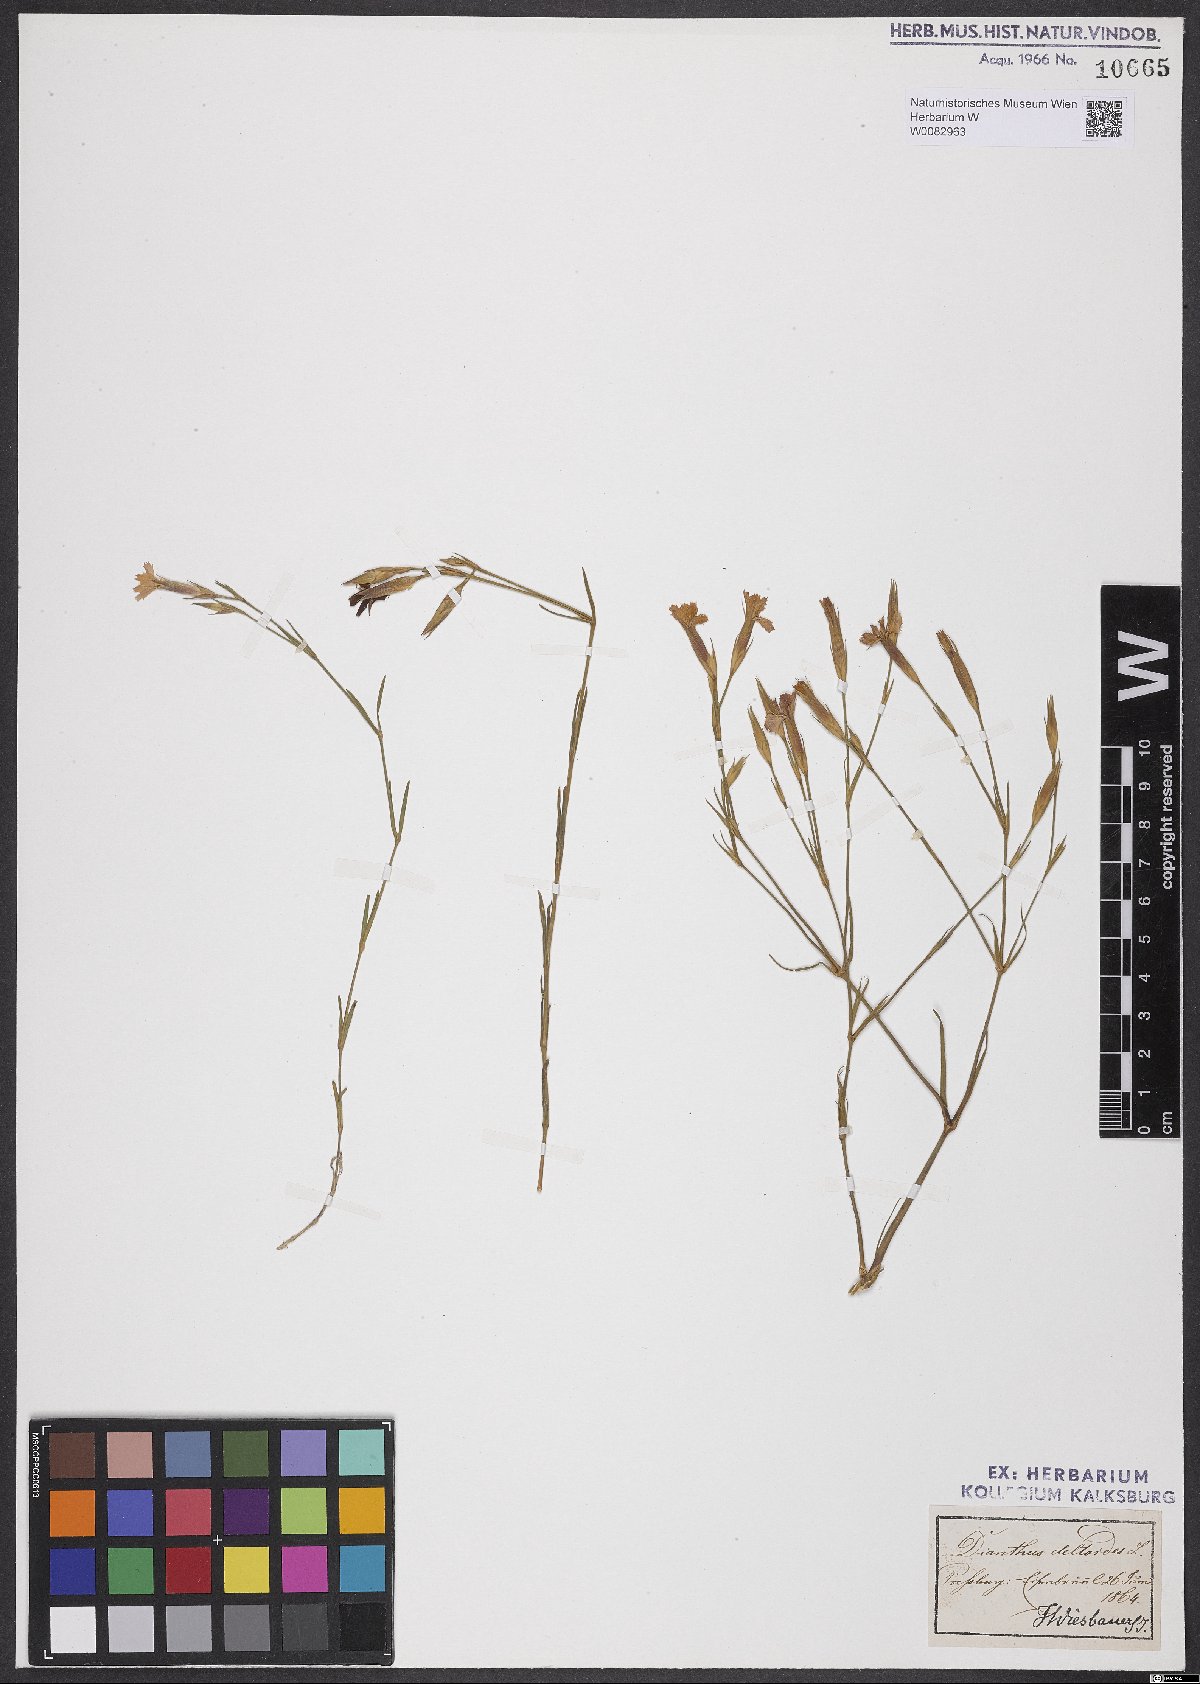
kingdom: Plantae
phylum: Tracheophyta
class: Magnoliopsida
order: Caryophyllales
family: Caryophyllaceae
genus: Dianthus
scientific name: Dianthus deltoides
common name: Maiden pink
